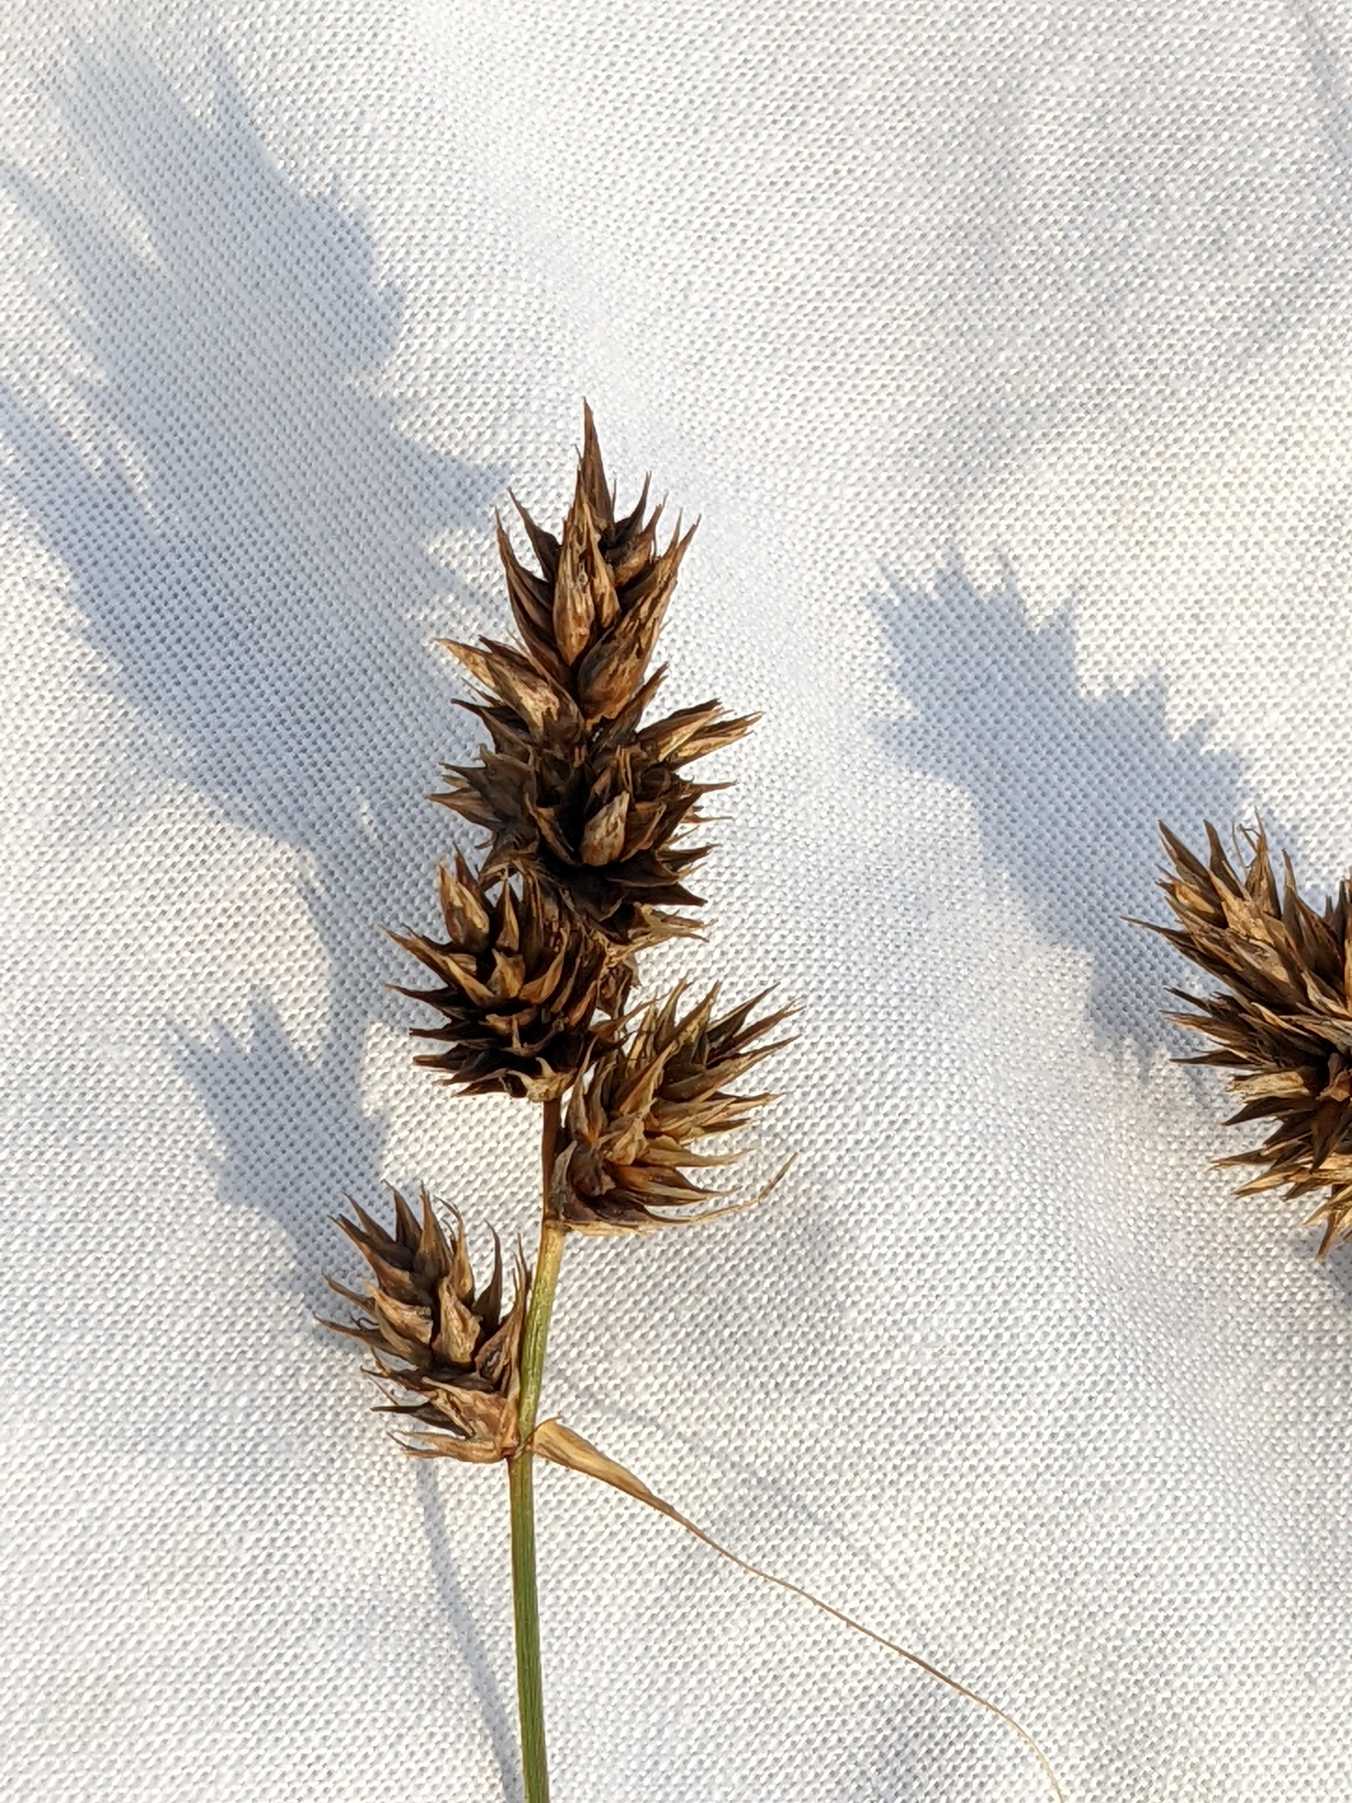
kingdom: Plantae
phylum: Tracheophyta
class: Liliopsida
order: Poales
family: Cyperaceae
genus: Carex
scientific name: Carex
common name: Starslægten
